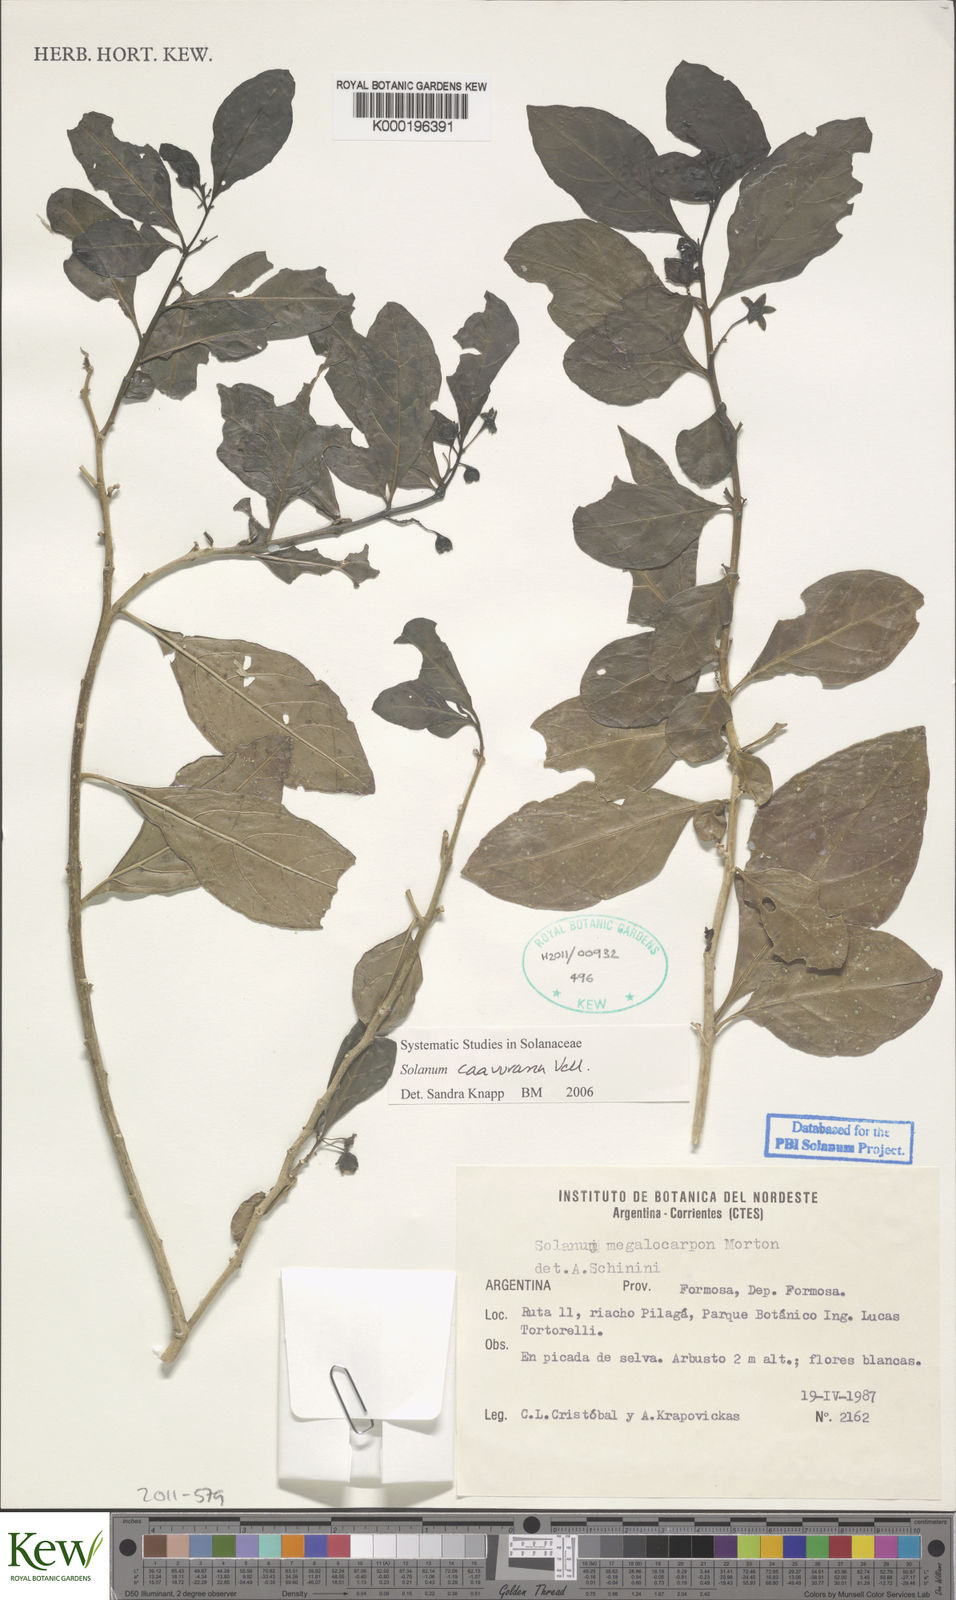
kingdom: Plantae
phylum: Tracheophyta
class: Magnoliopsida
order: Solanales
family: Solanaceae
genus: Solanum
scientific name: Solanum caavurana
